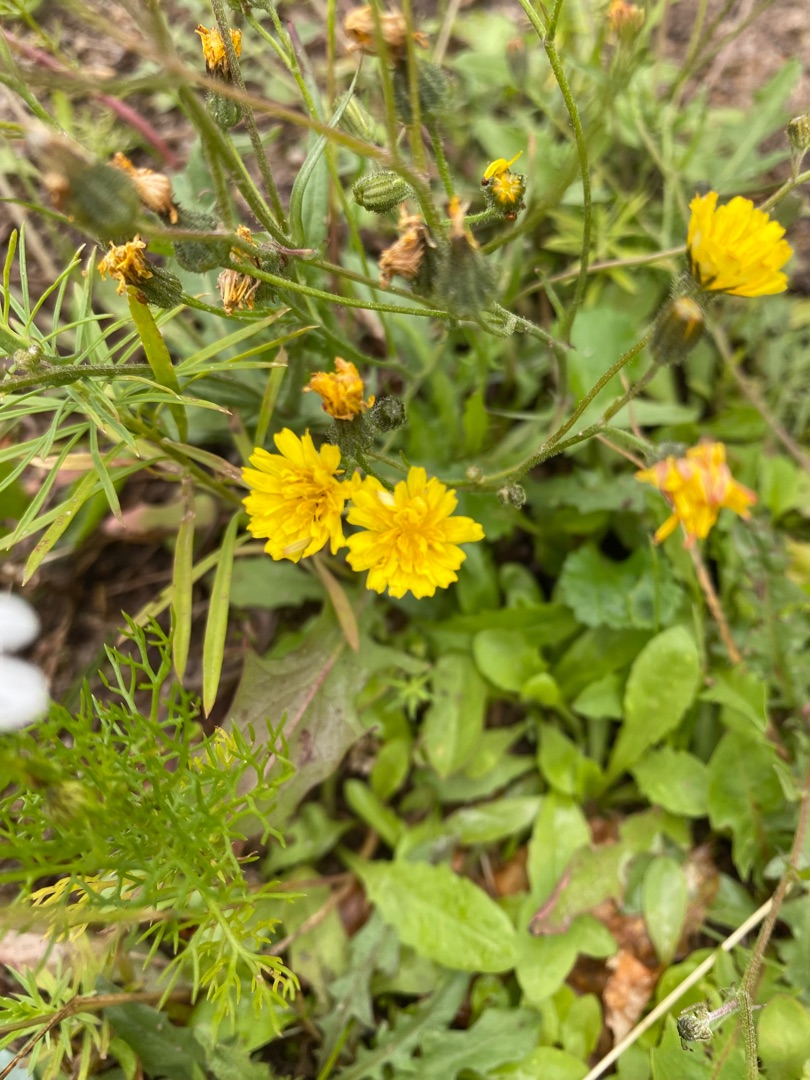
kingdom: Plantae
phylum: Tracheophyta
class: Magnoliopsida
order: Asterales
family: Asteraceae
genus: Crepis
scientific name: Crepis capillaris
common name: Grøn høgeskæg
